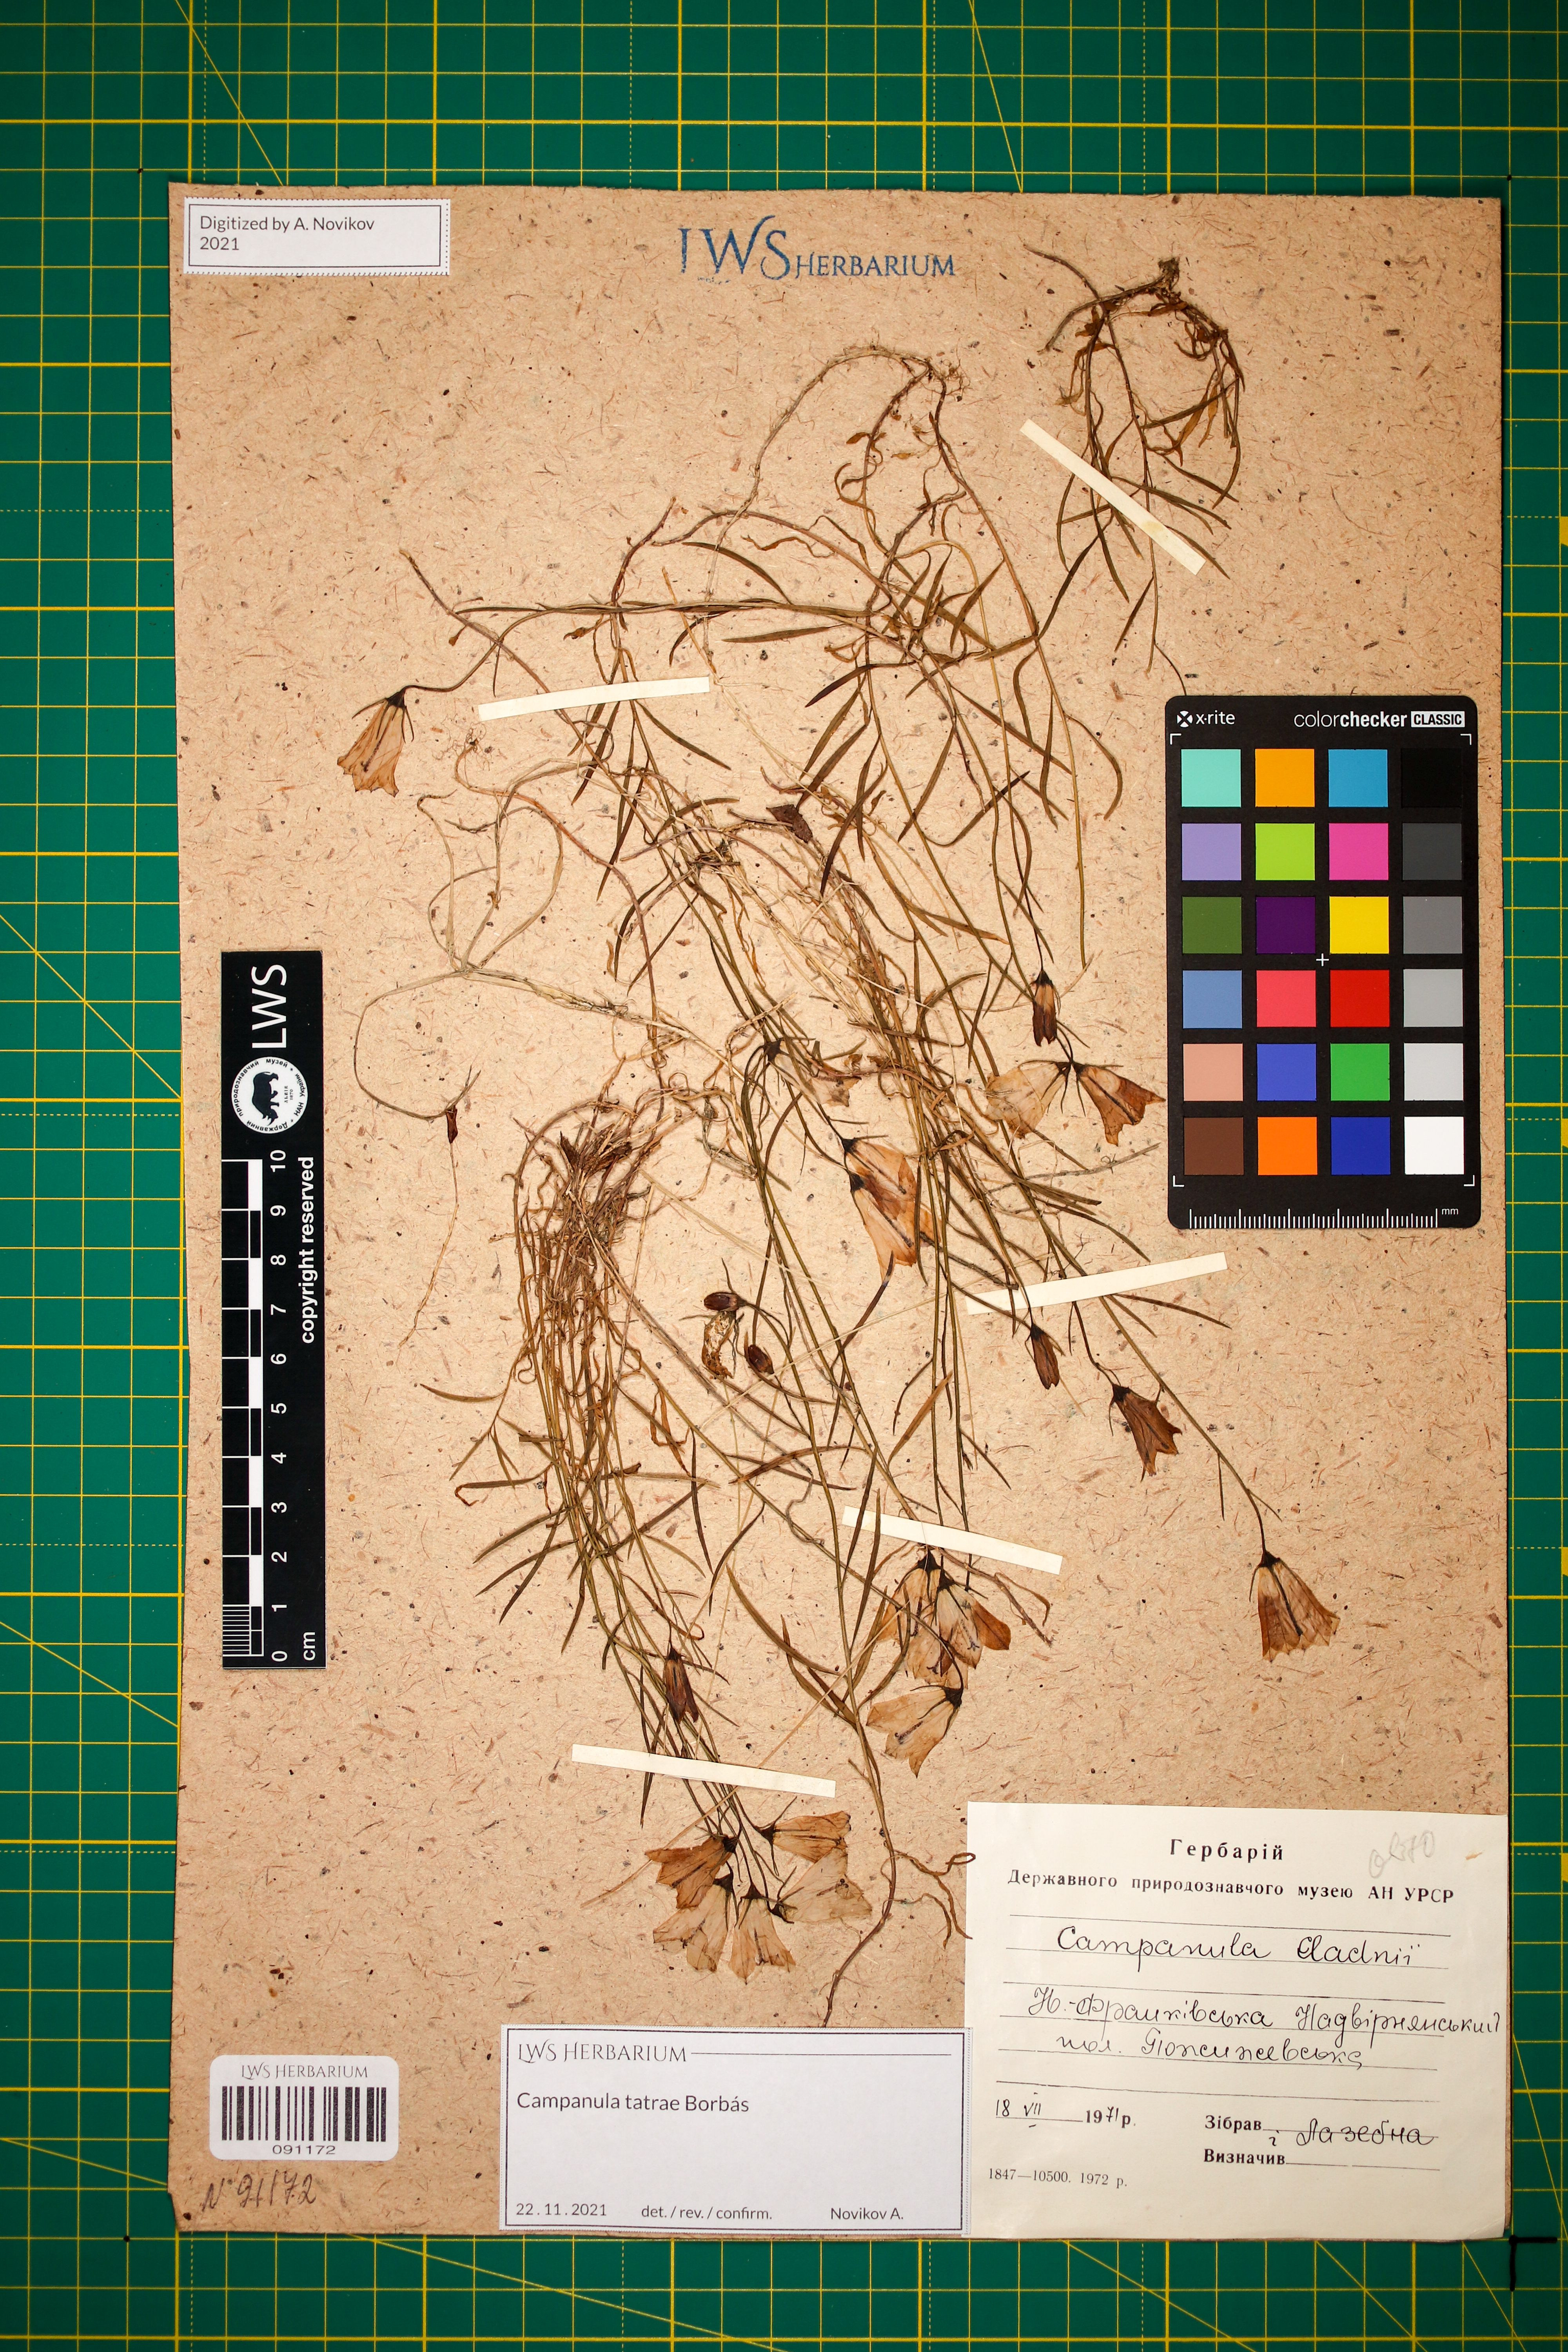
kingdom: Plantae
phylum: Tracheophyta
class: Magnoliopsida
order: Asterales
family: Campanulaceae
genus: Campanula
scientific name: Campanula kladniana
